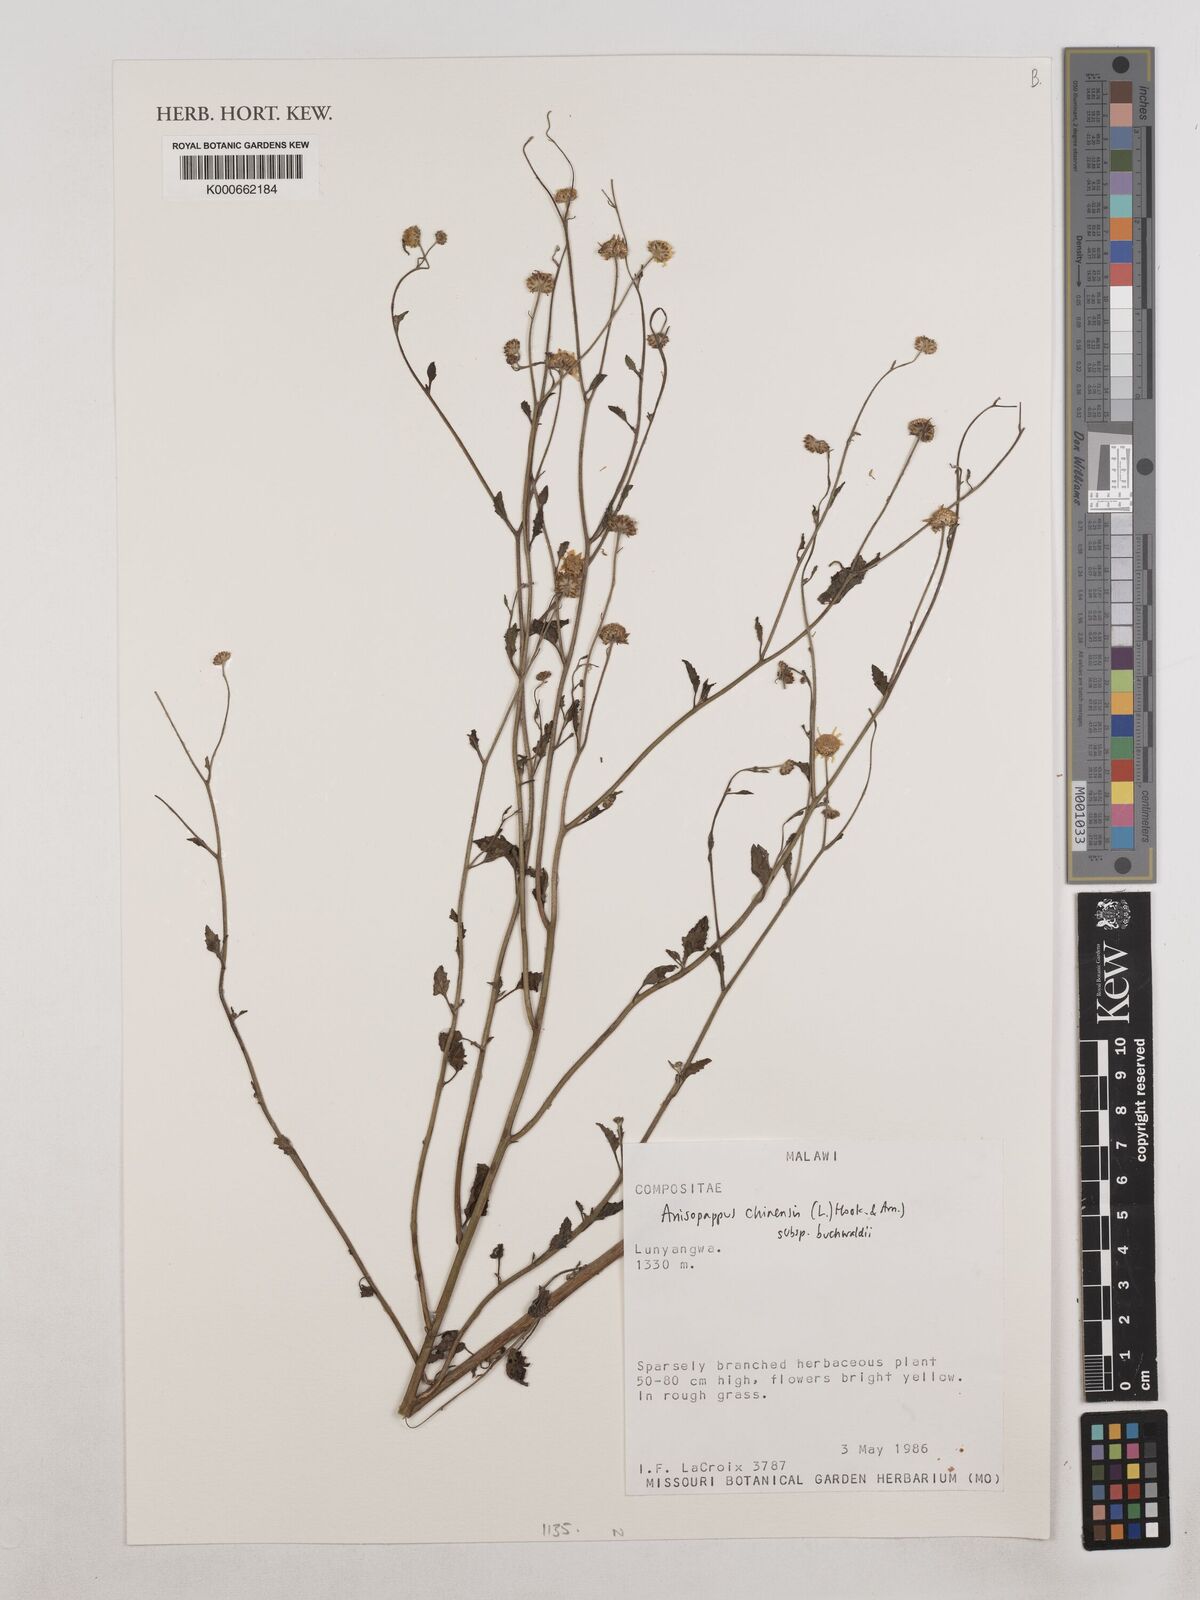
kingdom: Plantae
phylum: Tracheophyta
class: Magnoliopsida
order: Asterales
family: Asteraceae
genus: Anisopappus
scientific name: Anisopappus chinensis
